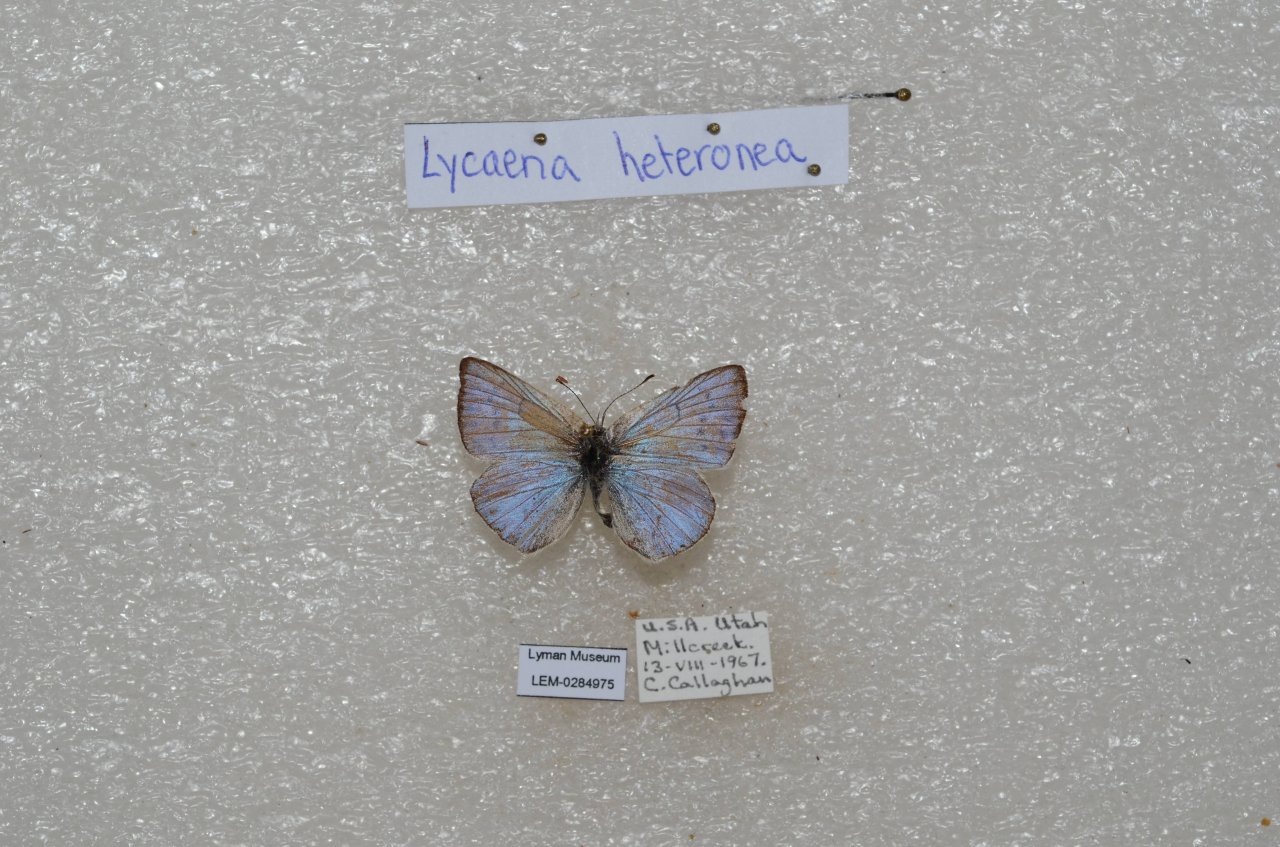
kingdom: Animalia
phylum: Arthropoda
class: Insecta
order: Lepidoptera
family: Lycaenidae
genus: Lycaena
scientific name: Lycaena heteronea
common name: Blue Copper
